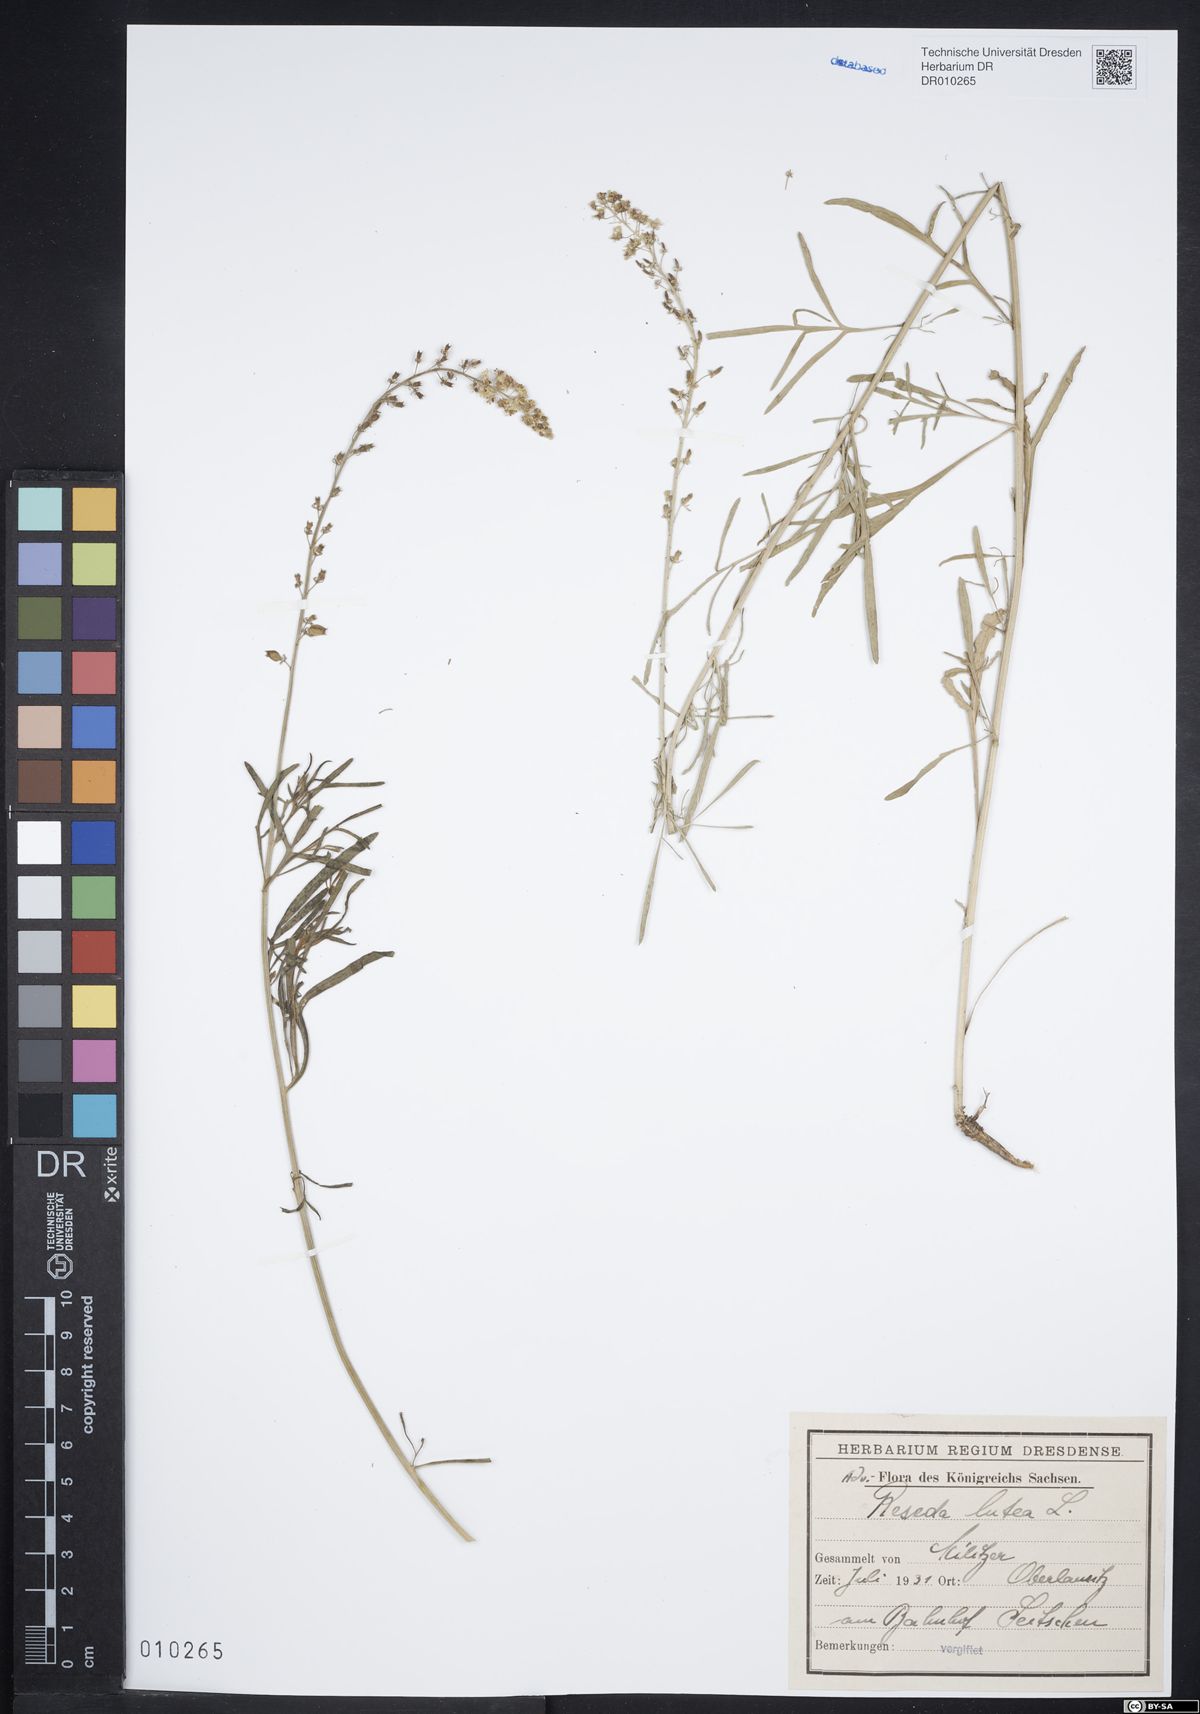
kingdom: Plantae
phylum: Tracheophyta
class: Magnoliopsida
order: Brassicales
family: Resedaceae
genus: Reseda
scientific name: Reseda lutea
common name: Wild mignonette
